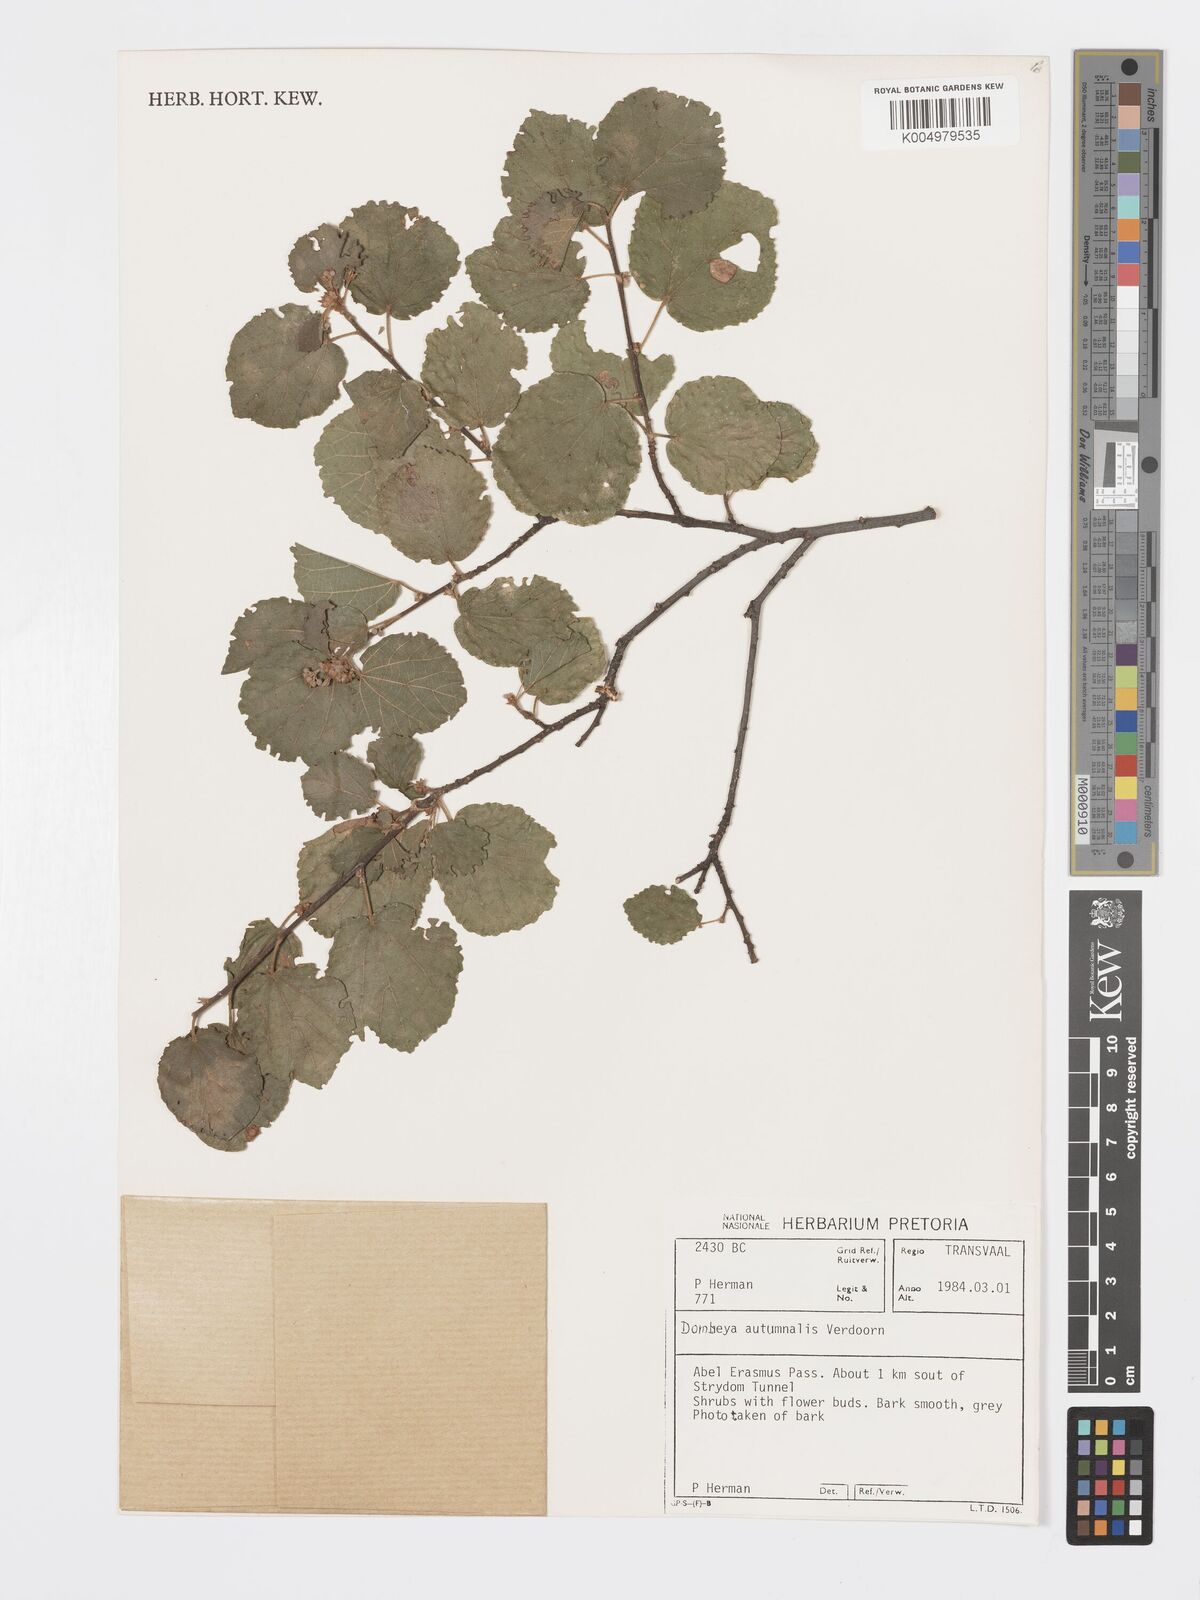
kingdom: Plantae
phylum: Tracheophyta
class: Magnoliopsida
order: Malvales
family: Malvaceae
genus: Dombeya
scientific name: Dombeya autumnalis
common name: Rock dombeya
